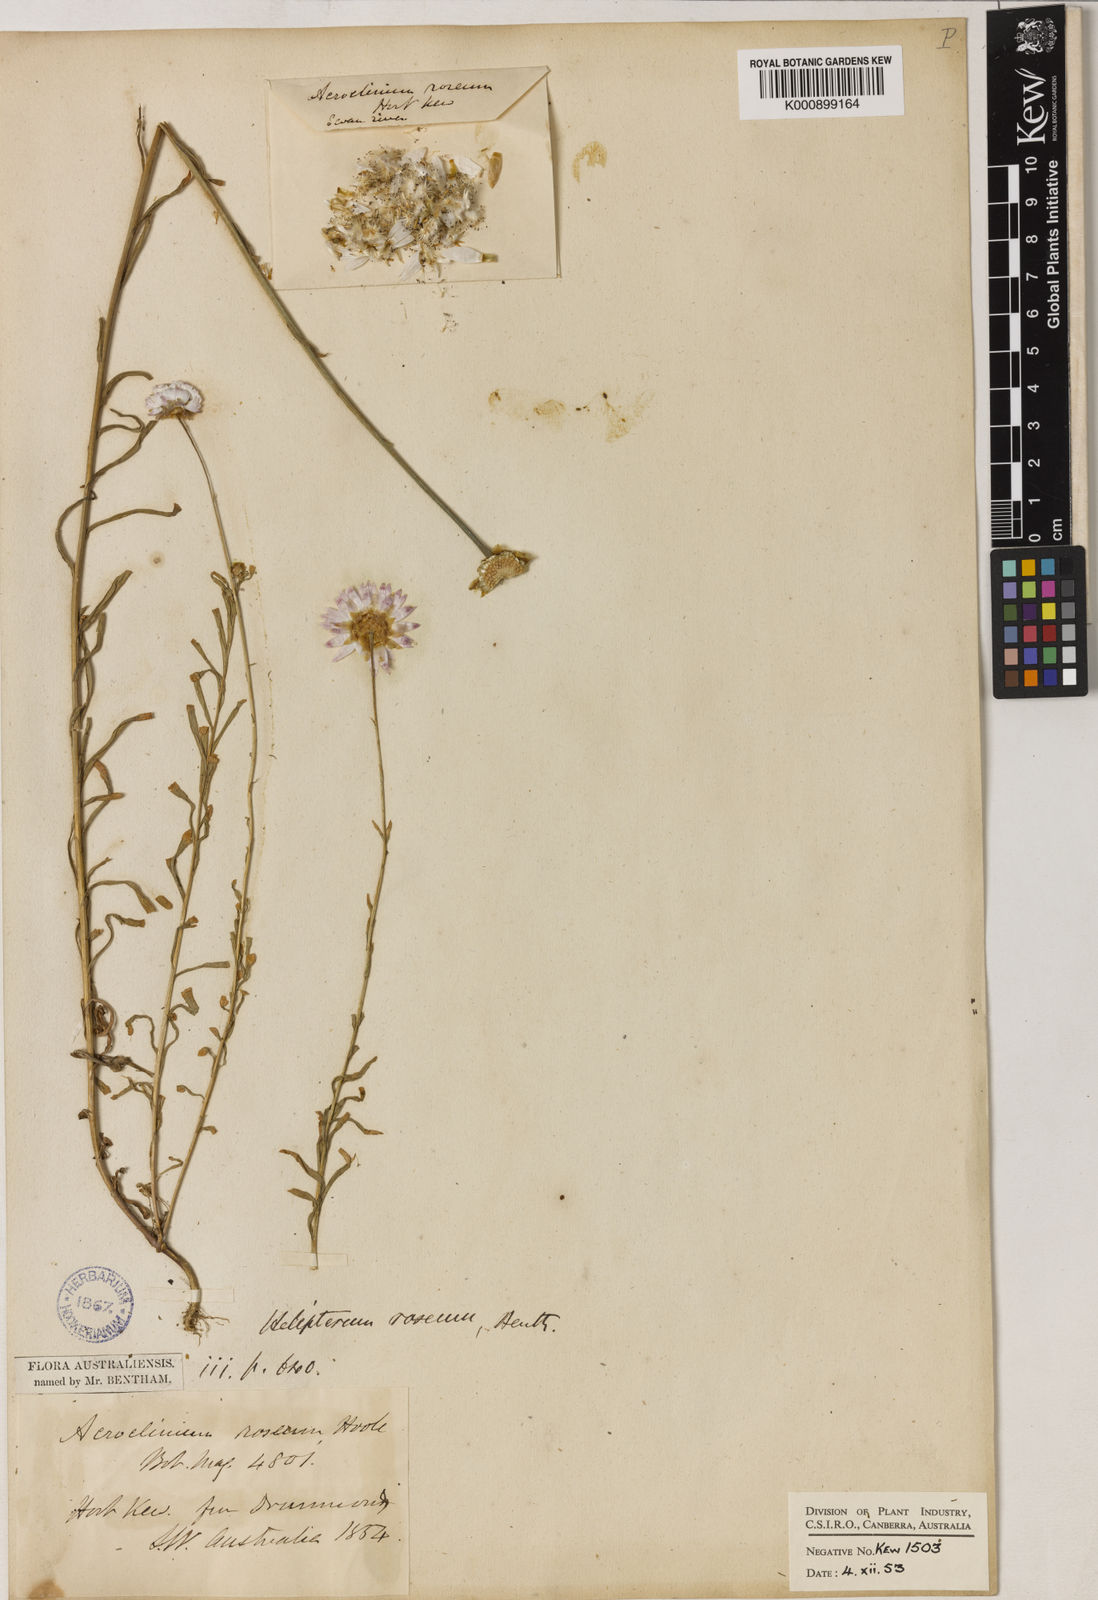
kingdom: Plantae
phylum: Tracheophyta
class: Magnoliopsida
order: Asterales
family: Asteraceae
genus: Rhodanthe
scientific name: Rhodanthe chlorocephala
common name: Rosy sunray
